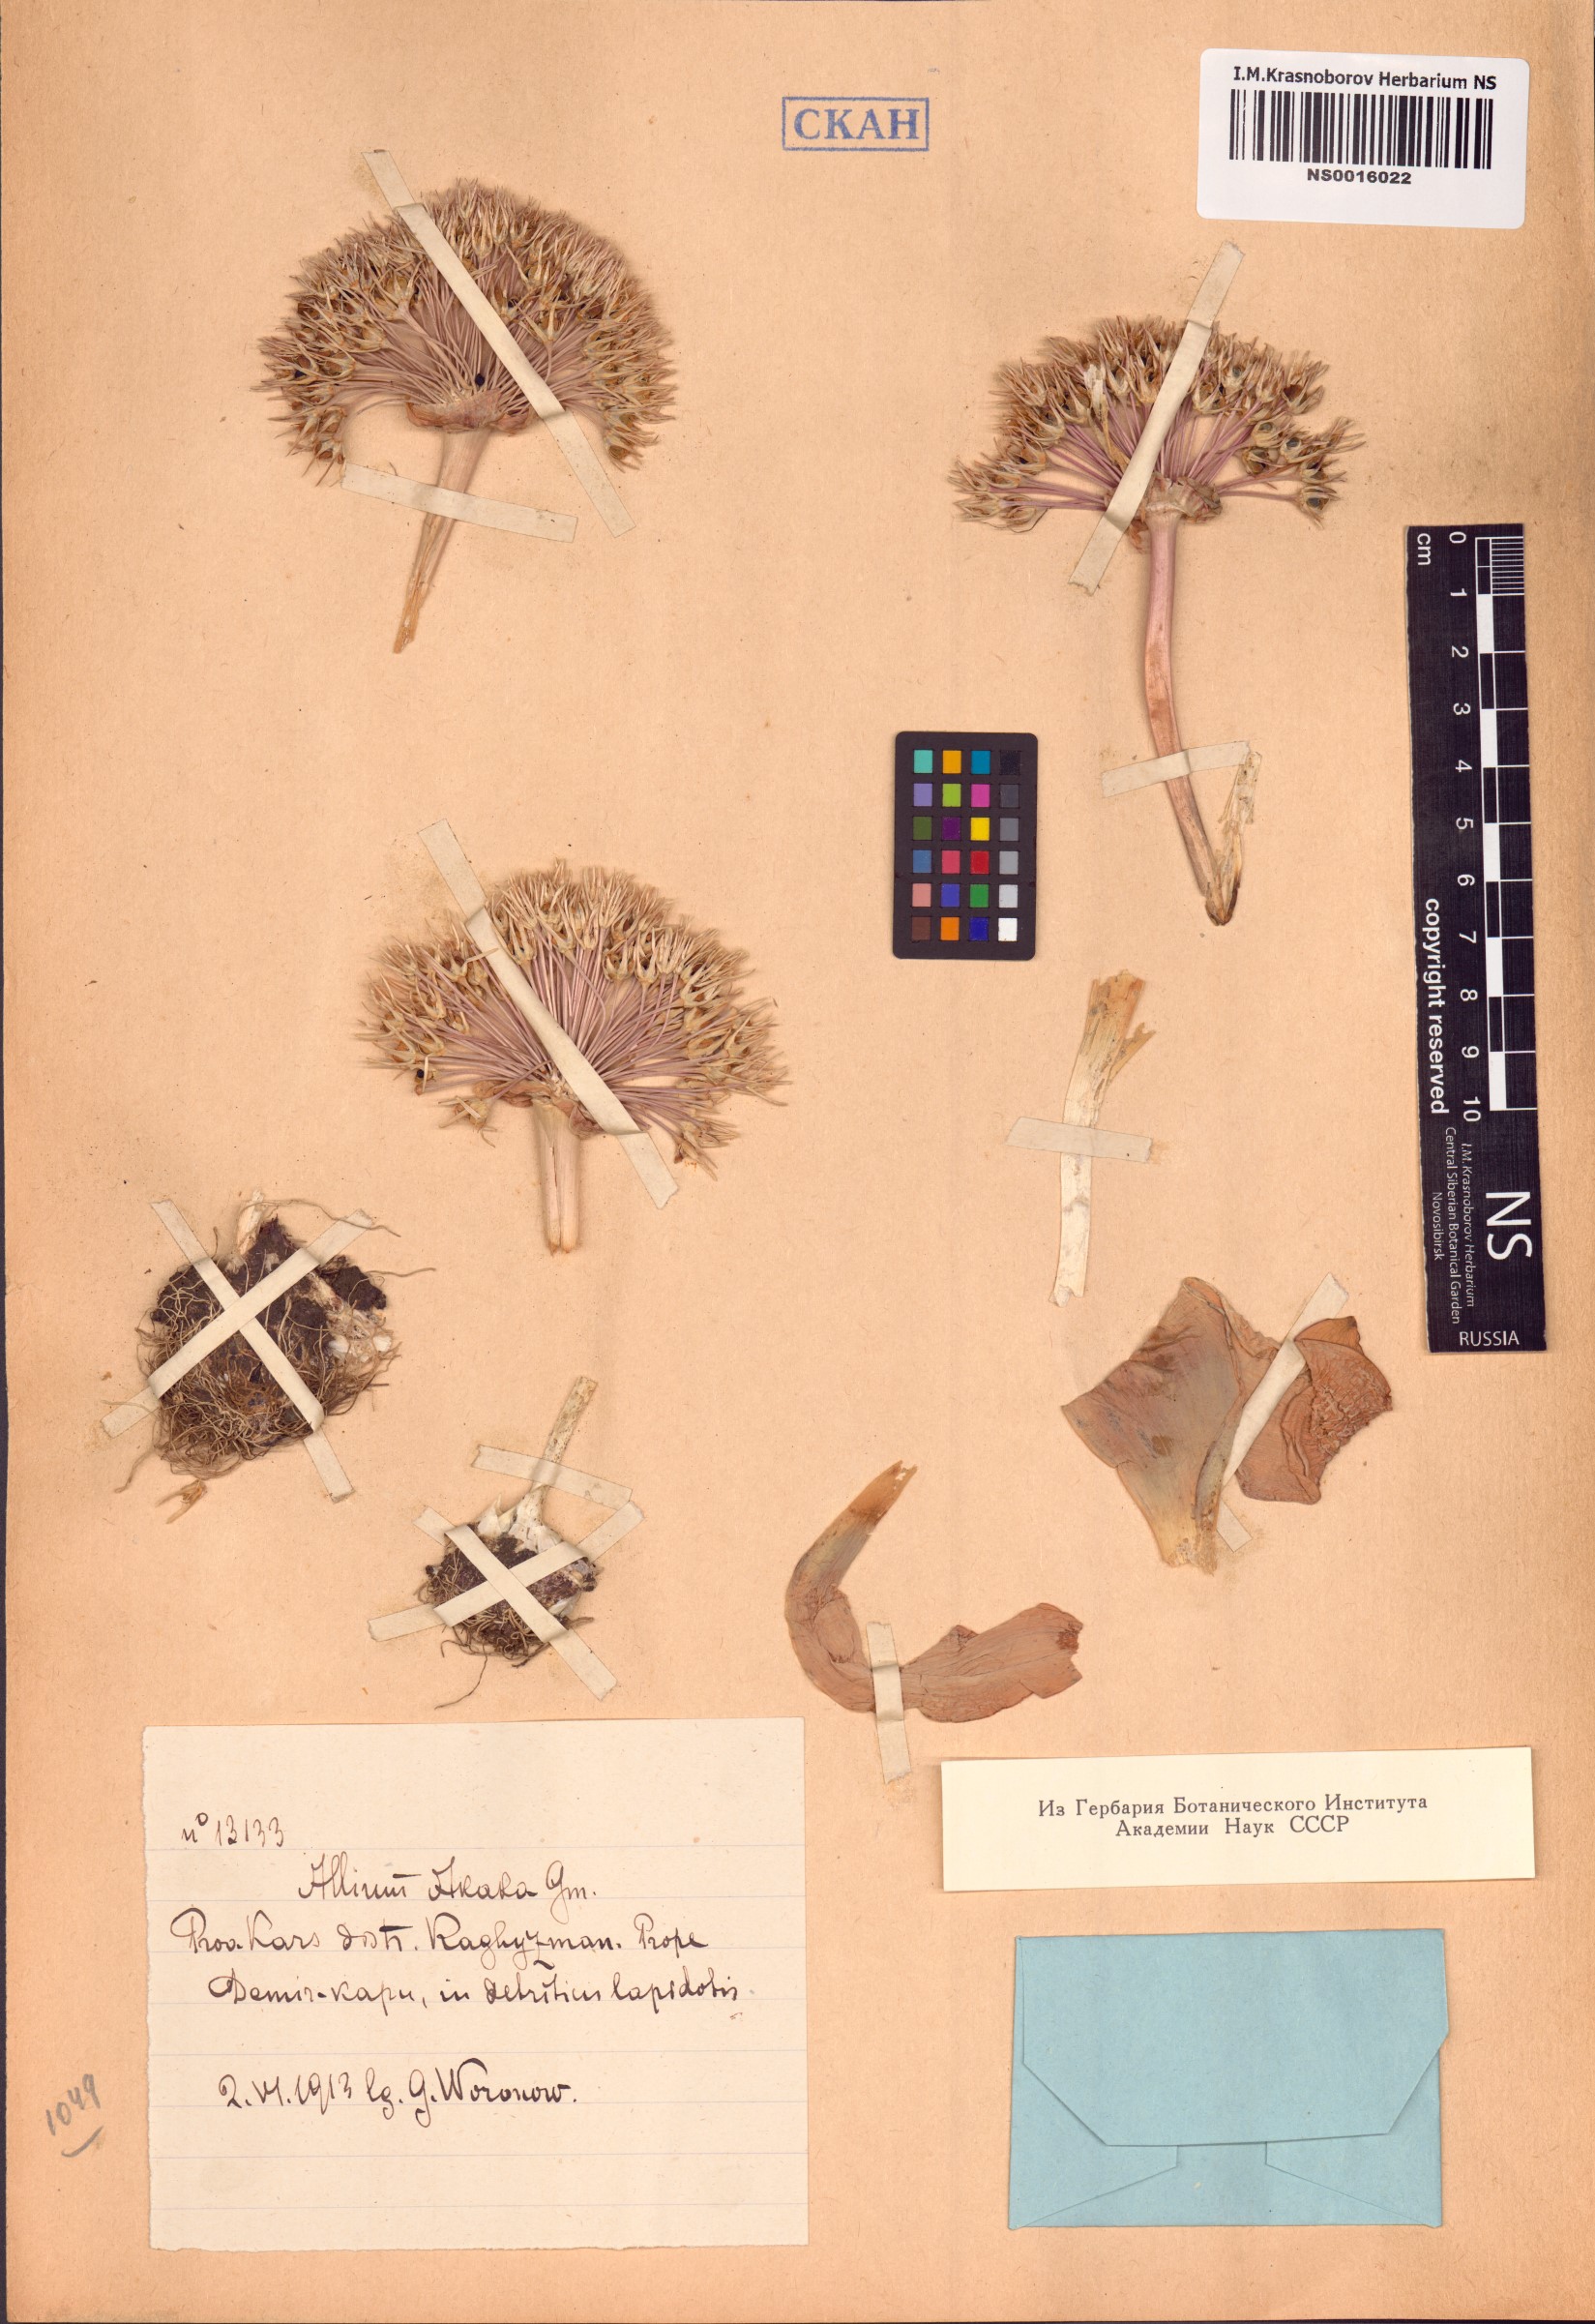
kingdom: Plantae
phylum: Tracheophyta
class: Liliopsida
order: Asparagales
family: Amaryllidaceae
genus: Allium
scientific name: Allium akaka
